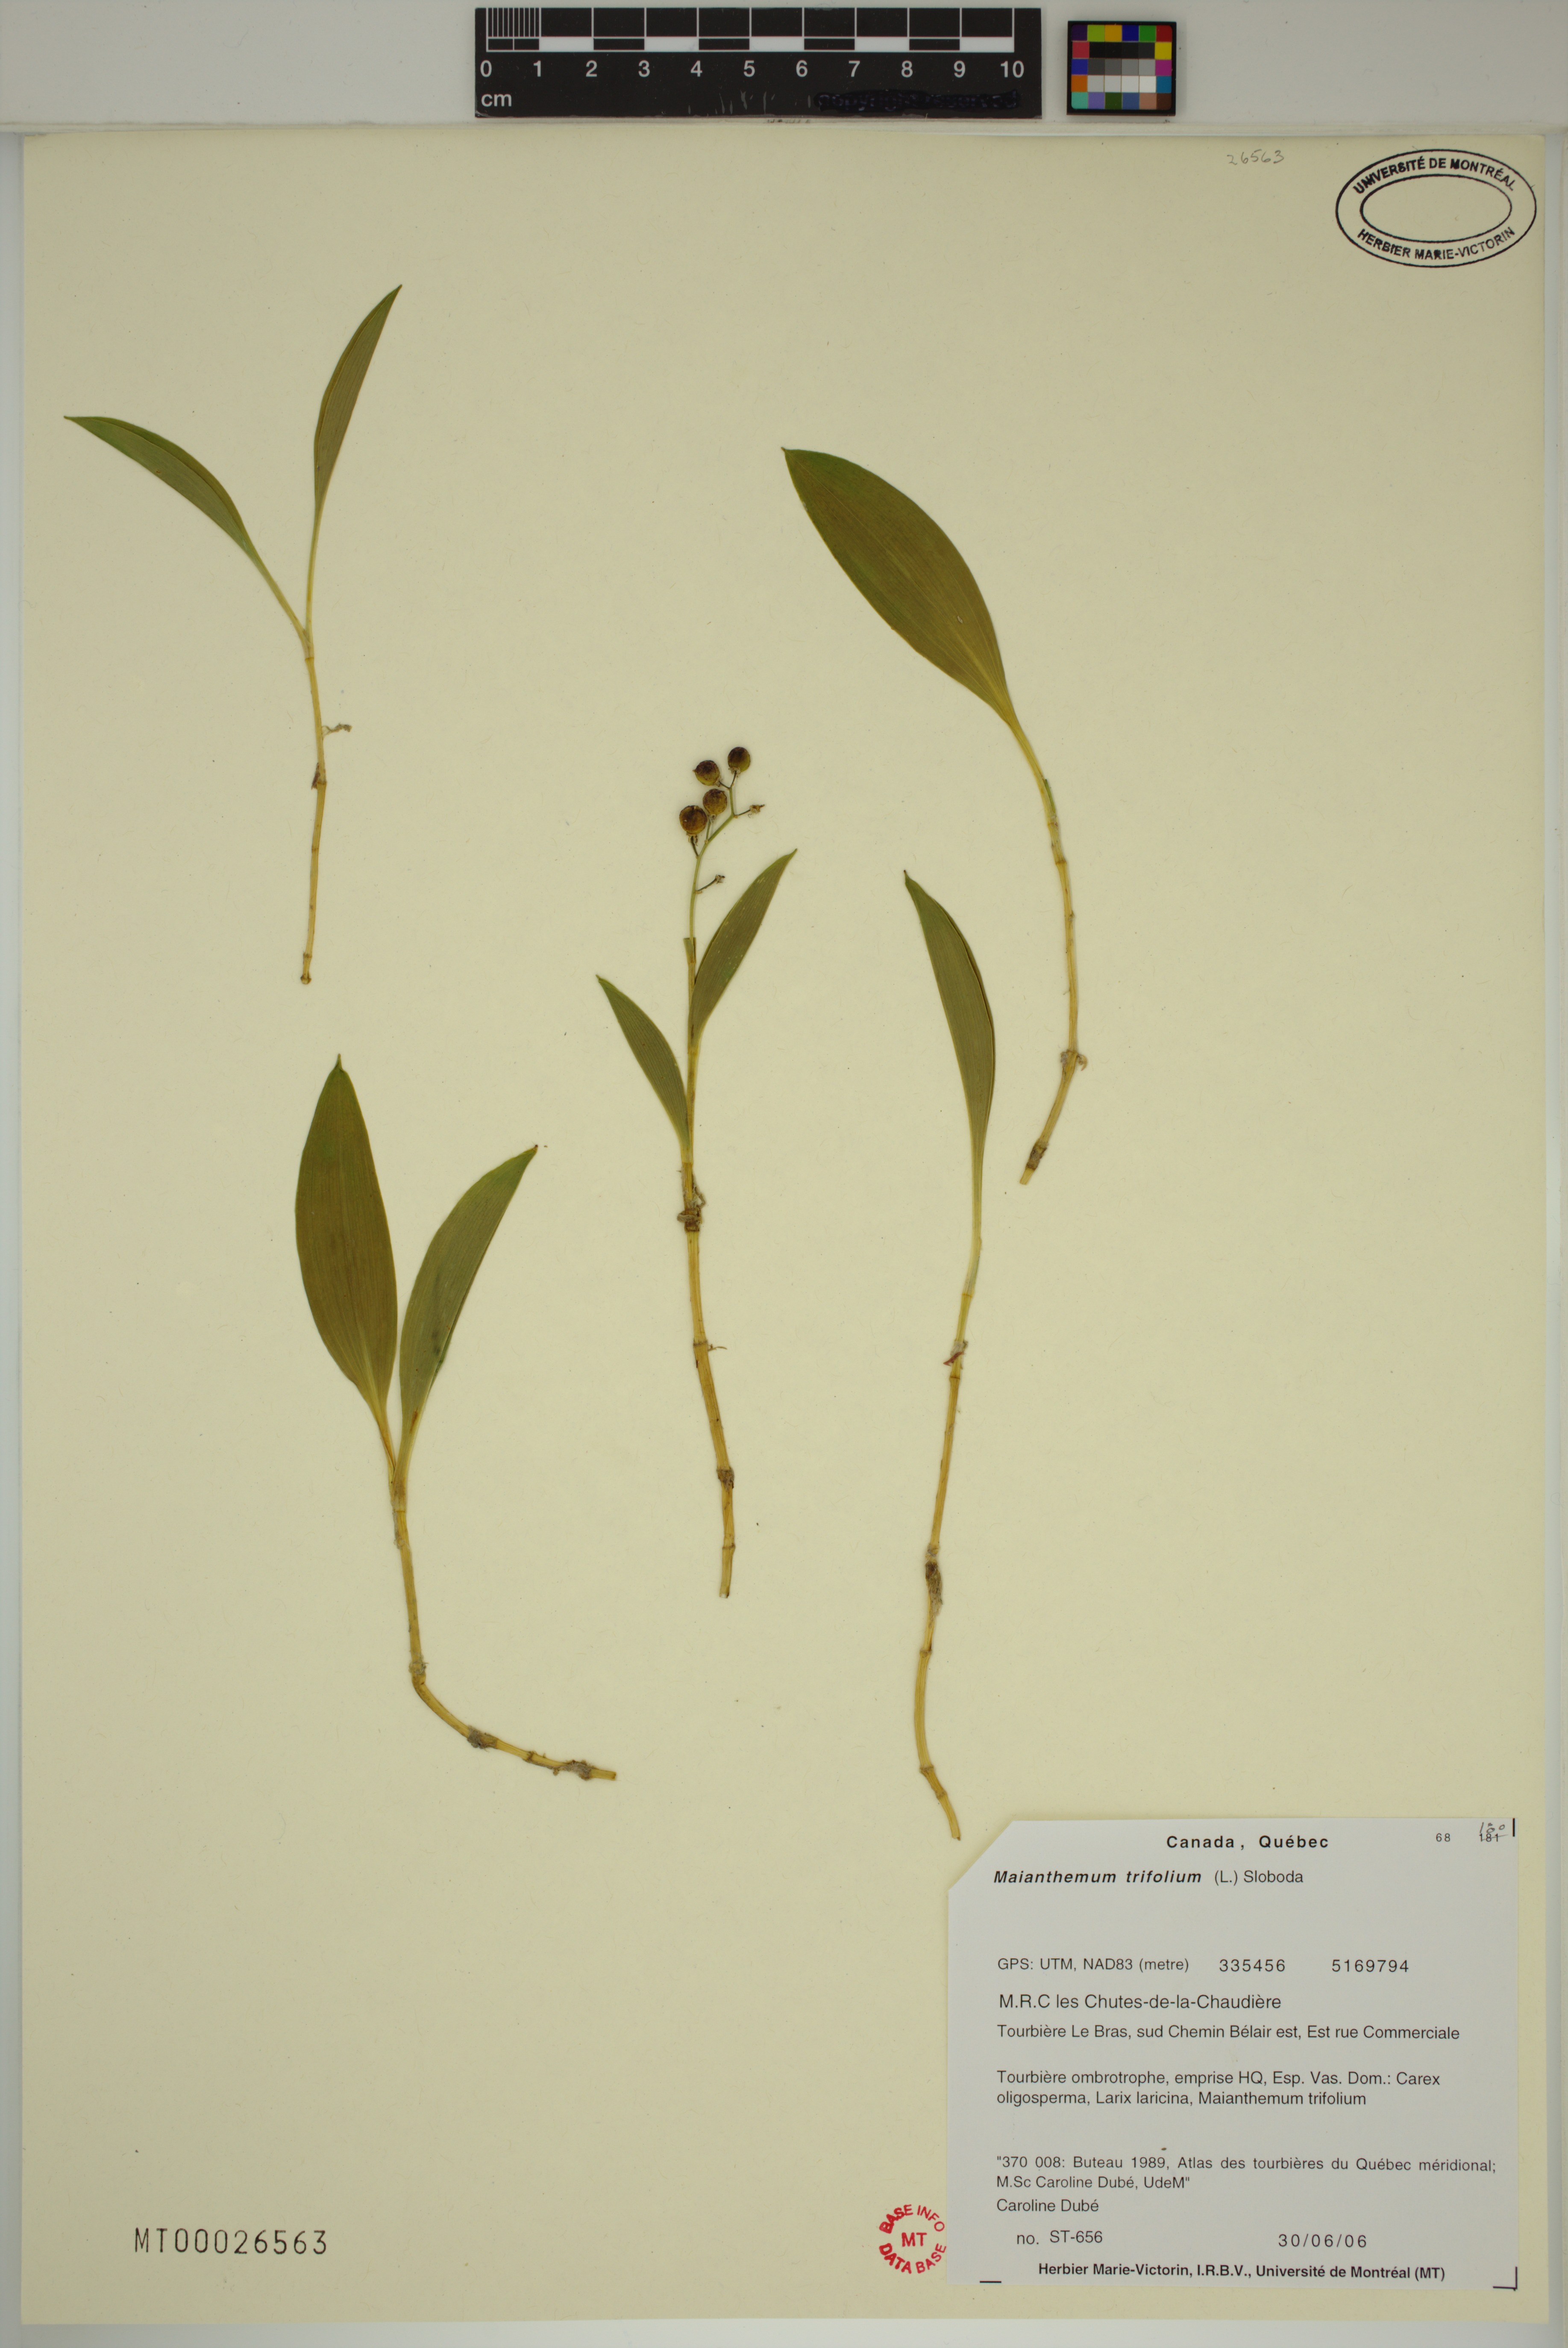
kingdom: Plantae
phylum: Tracheophyta
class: Liliopsida
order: Asparagales
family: Asparagaceae
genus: Maianthemum
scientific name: Maianthemum trifolium
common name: Swamp false solomon's seal
